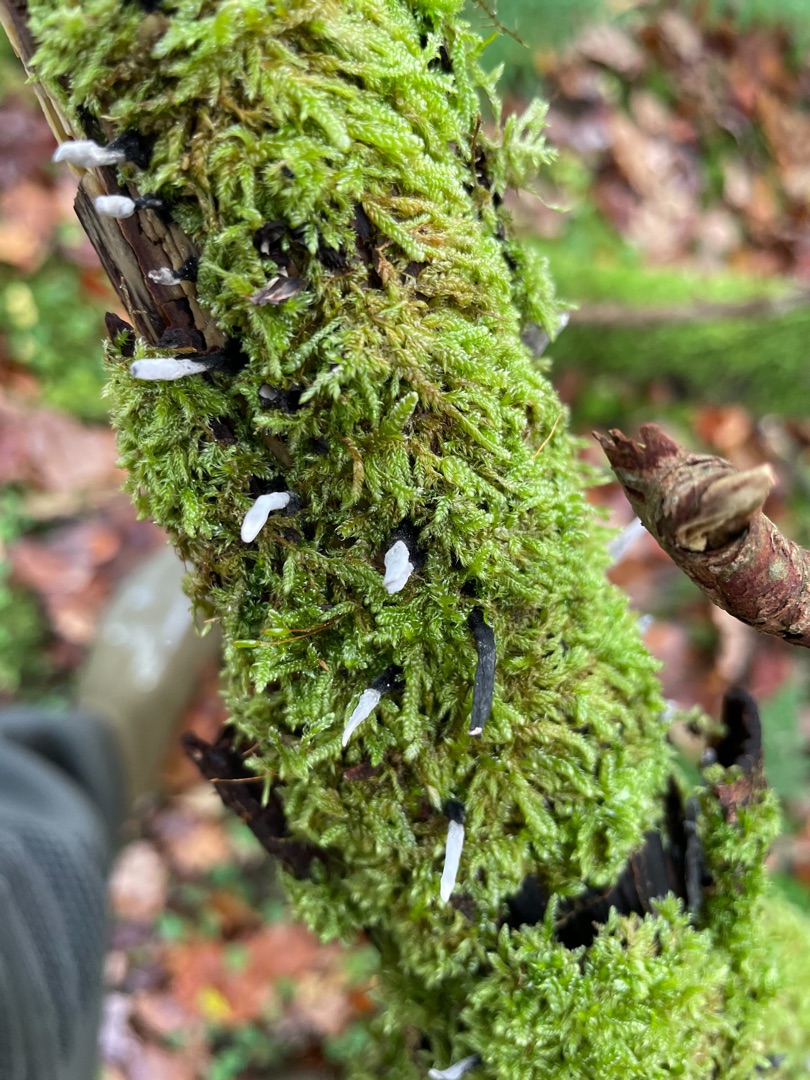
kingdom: Fungi
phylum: Ascomycota
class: Sordariomycetes
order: Xylariales
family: Xylariaceae
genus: Xylaria
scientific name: Xylaria hypoxylon
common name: Grenet stødsvamp
